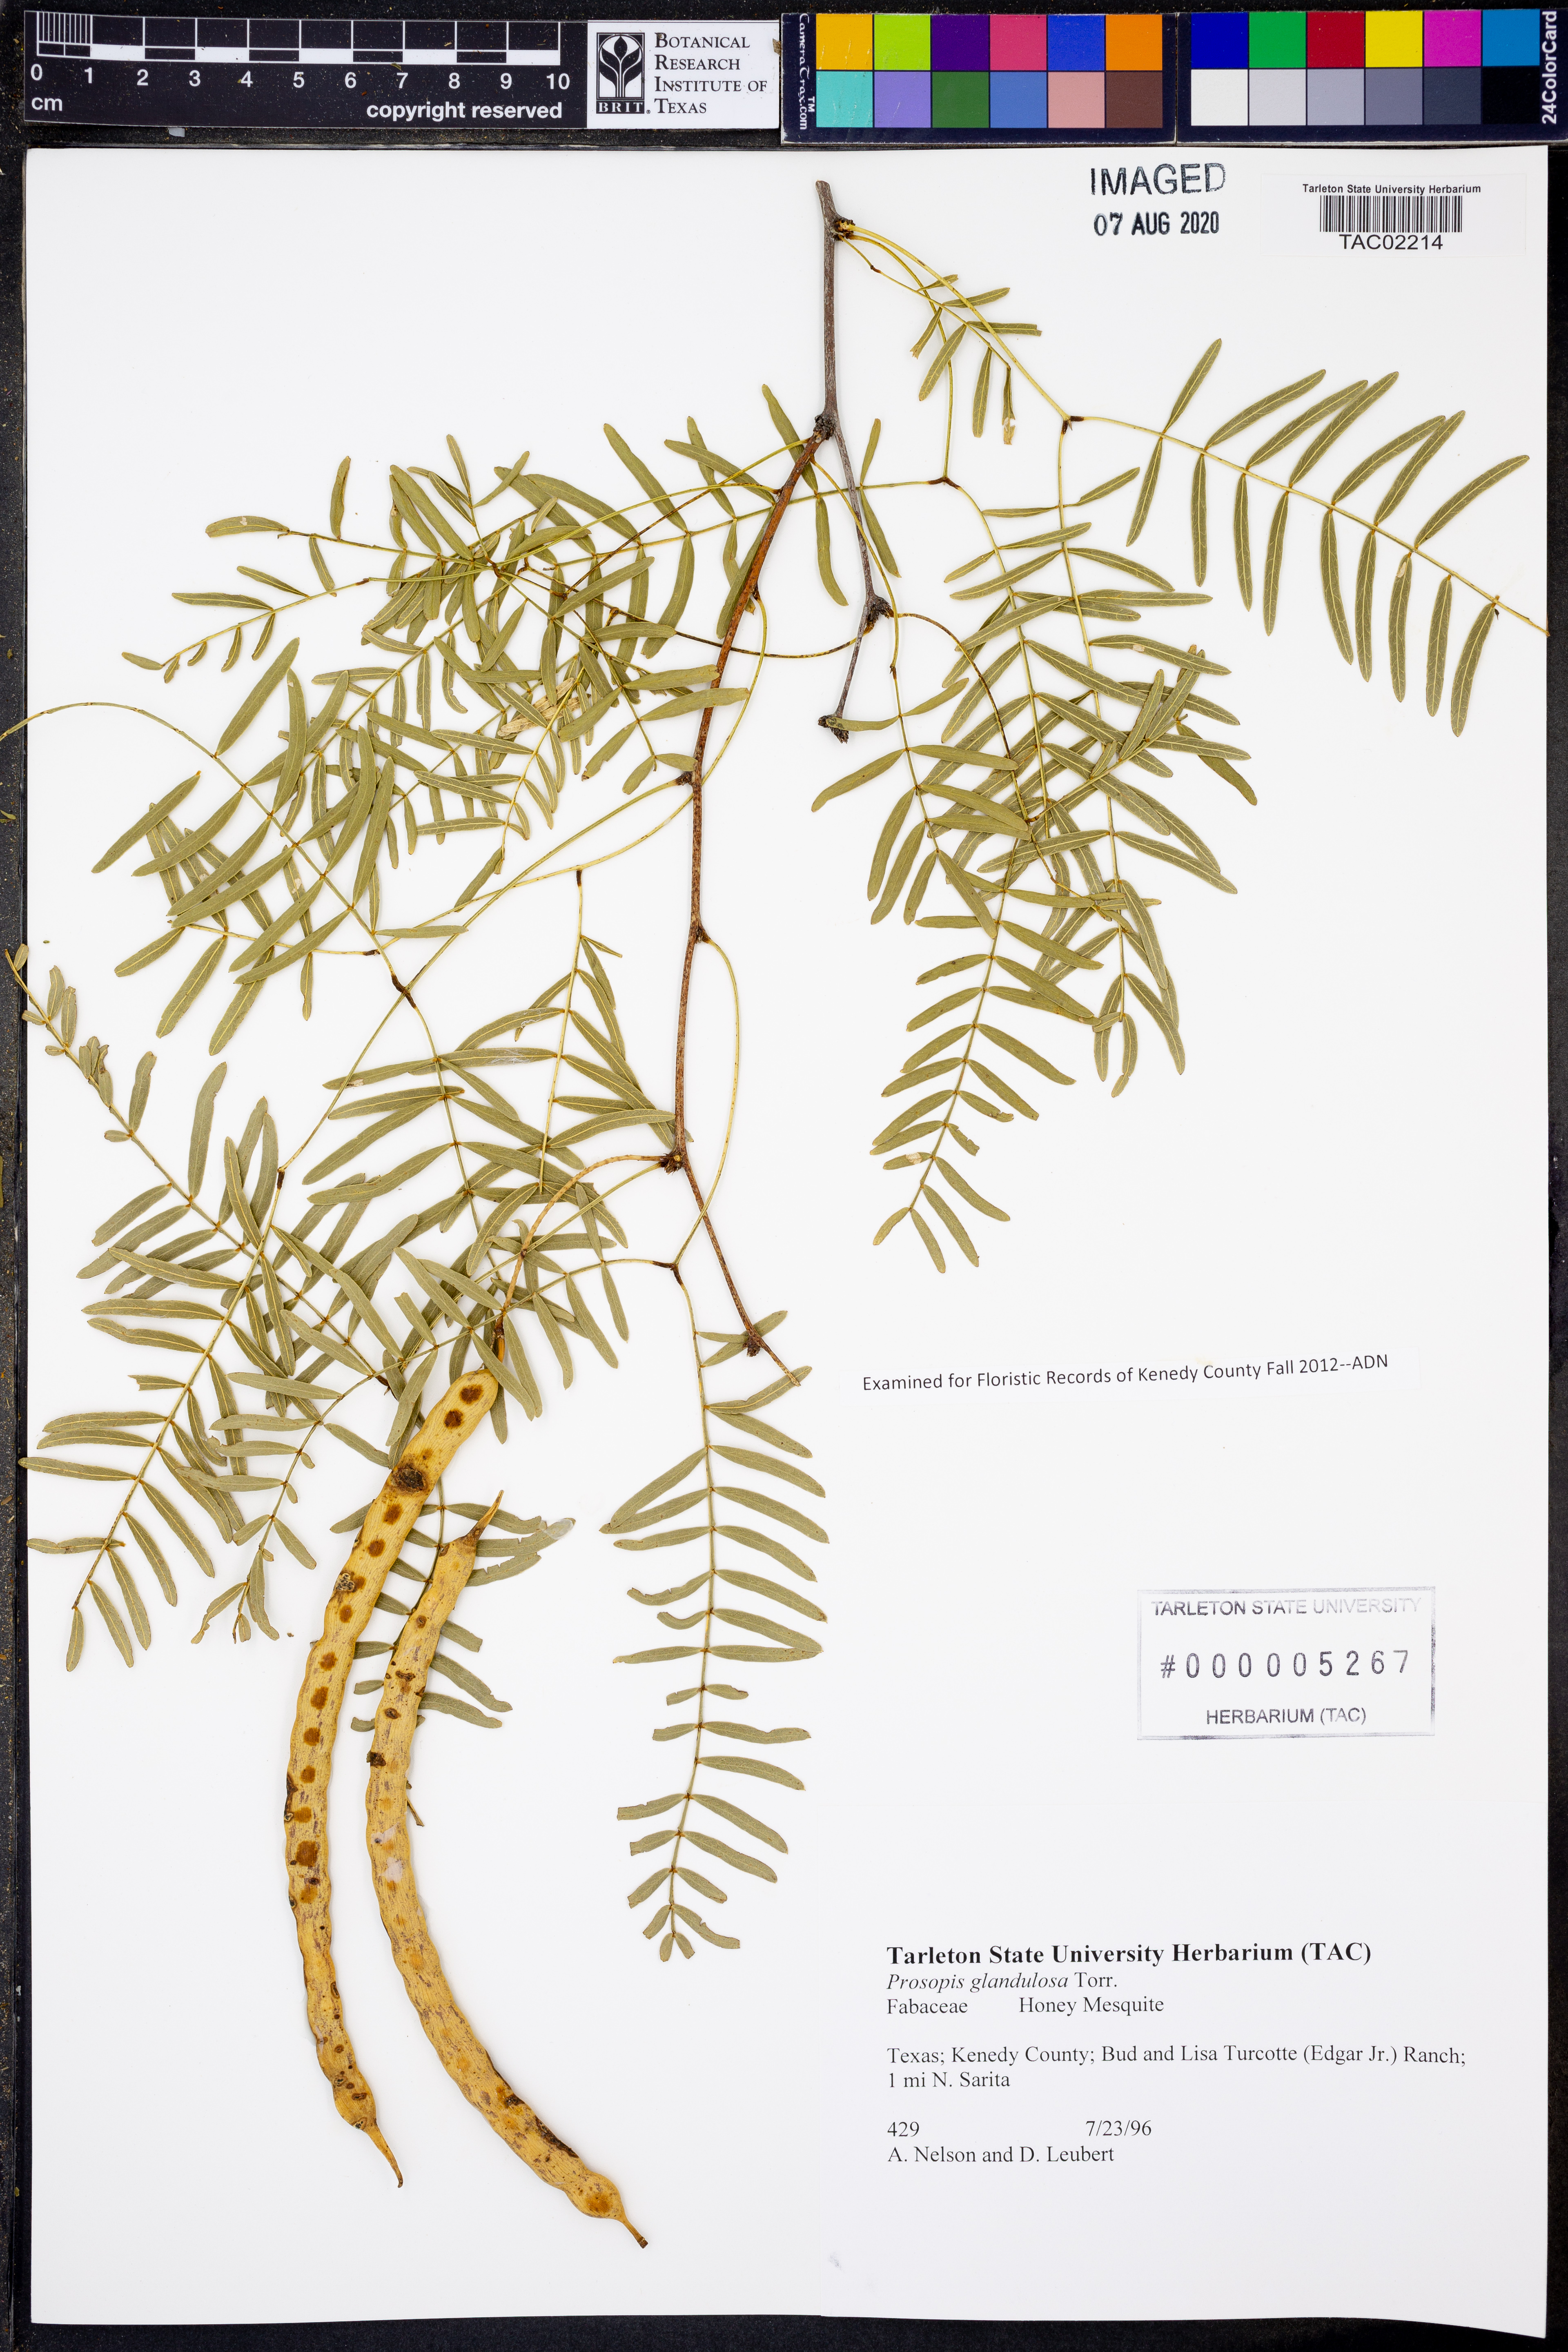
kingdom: Plantae
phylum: Tracheophyta
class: Magnoliopsida
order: Fabales
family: Fabaceae
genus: Prosopis
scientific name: Prosopis glandulosa
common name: Honey mesquite
